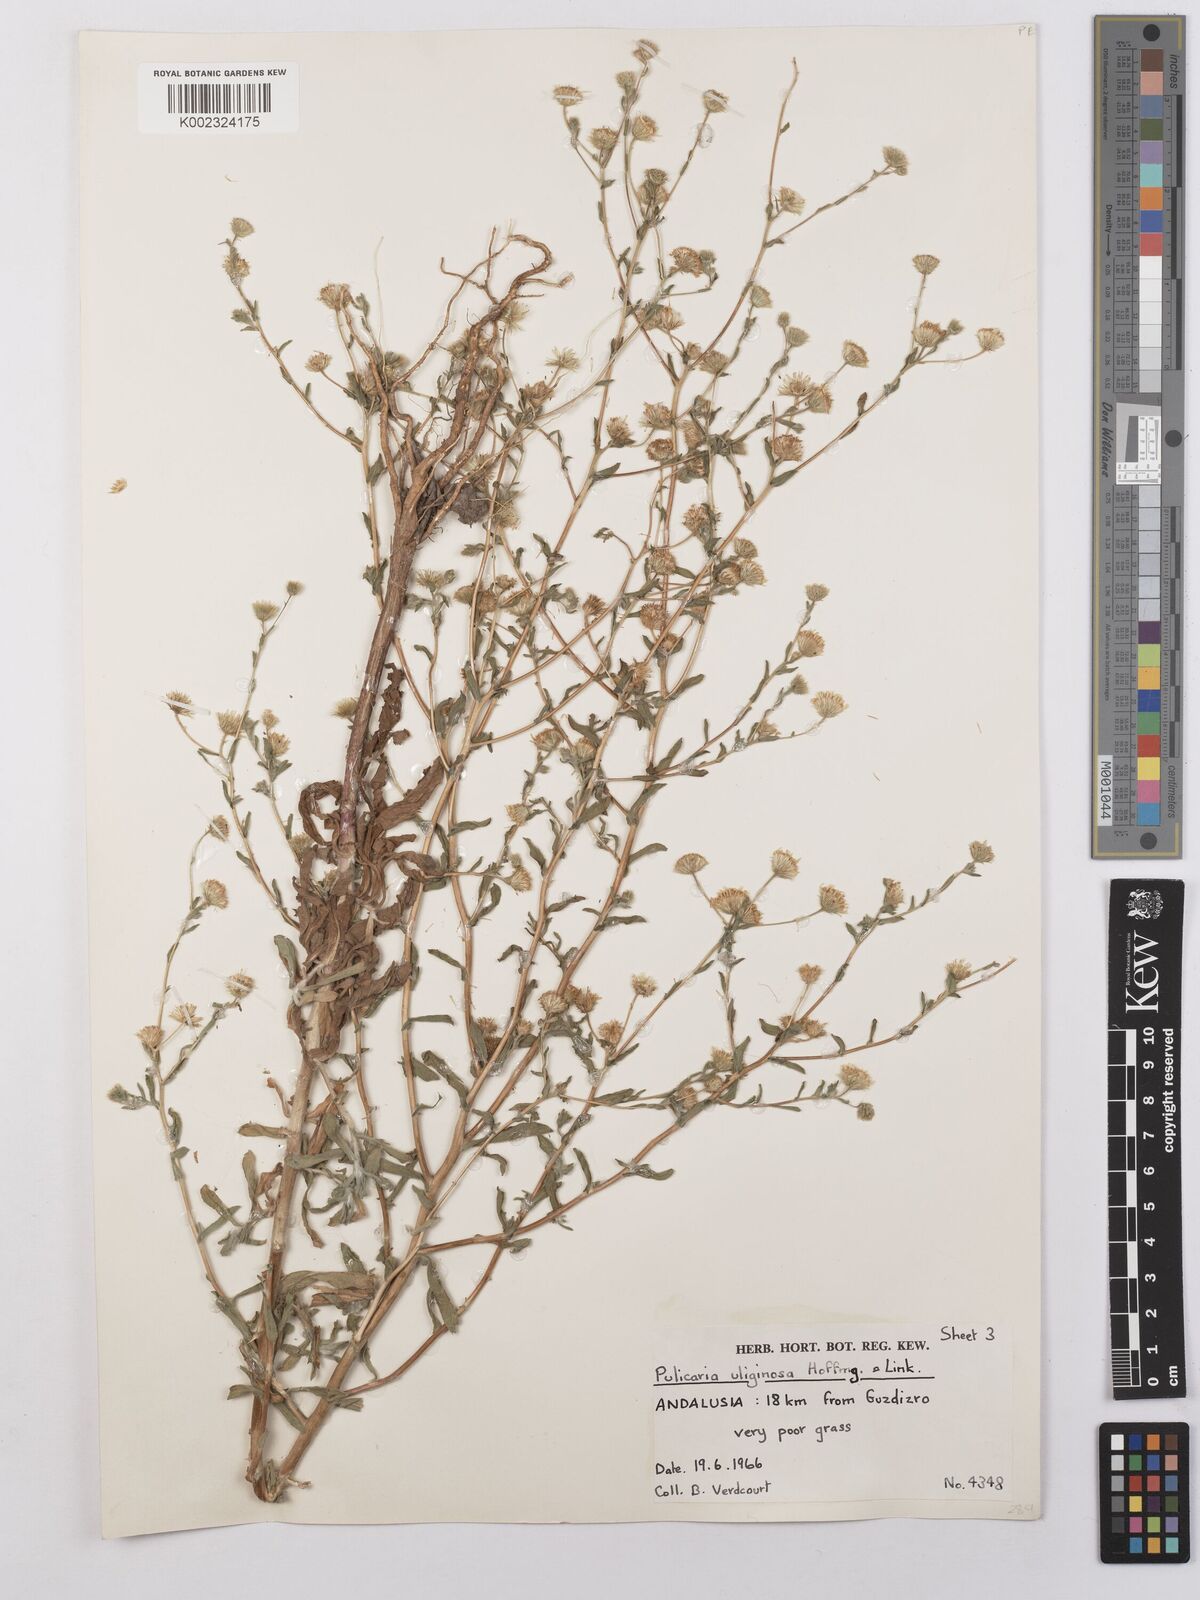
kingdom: Plantae
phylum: Tracheophyta
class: Magnoliopsida
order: Asterales
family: Asteraceae
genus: Pulicaria
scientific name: Pulicaria arabica
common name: Ladies' false fleabane
